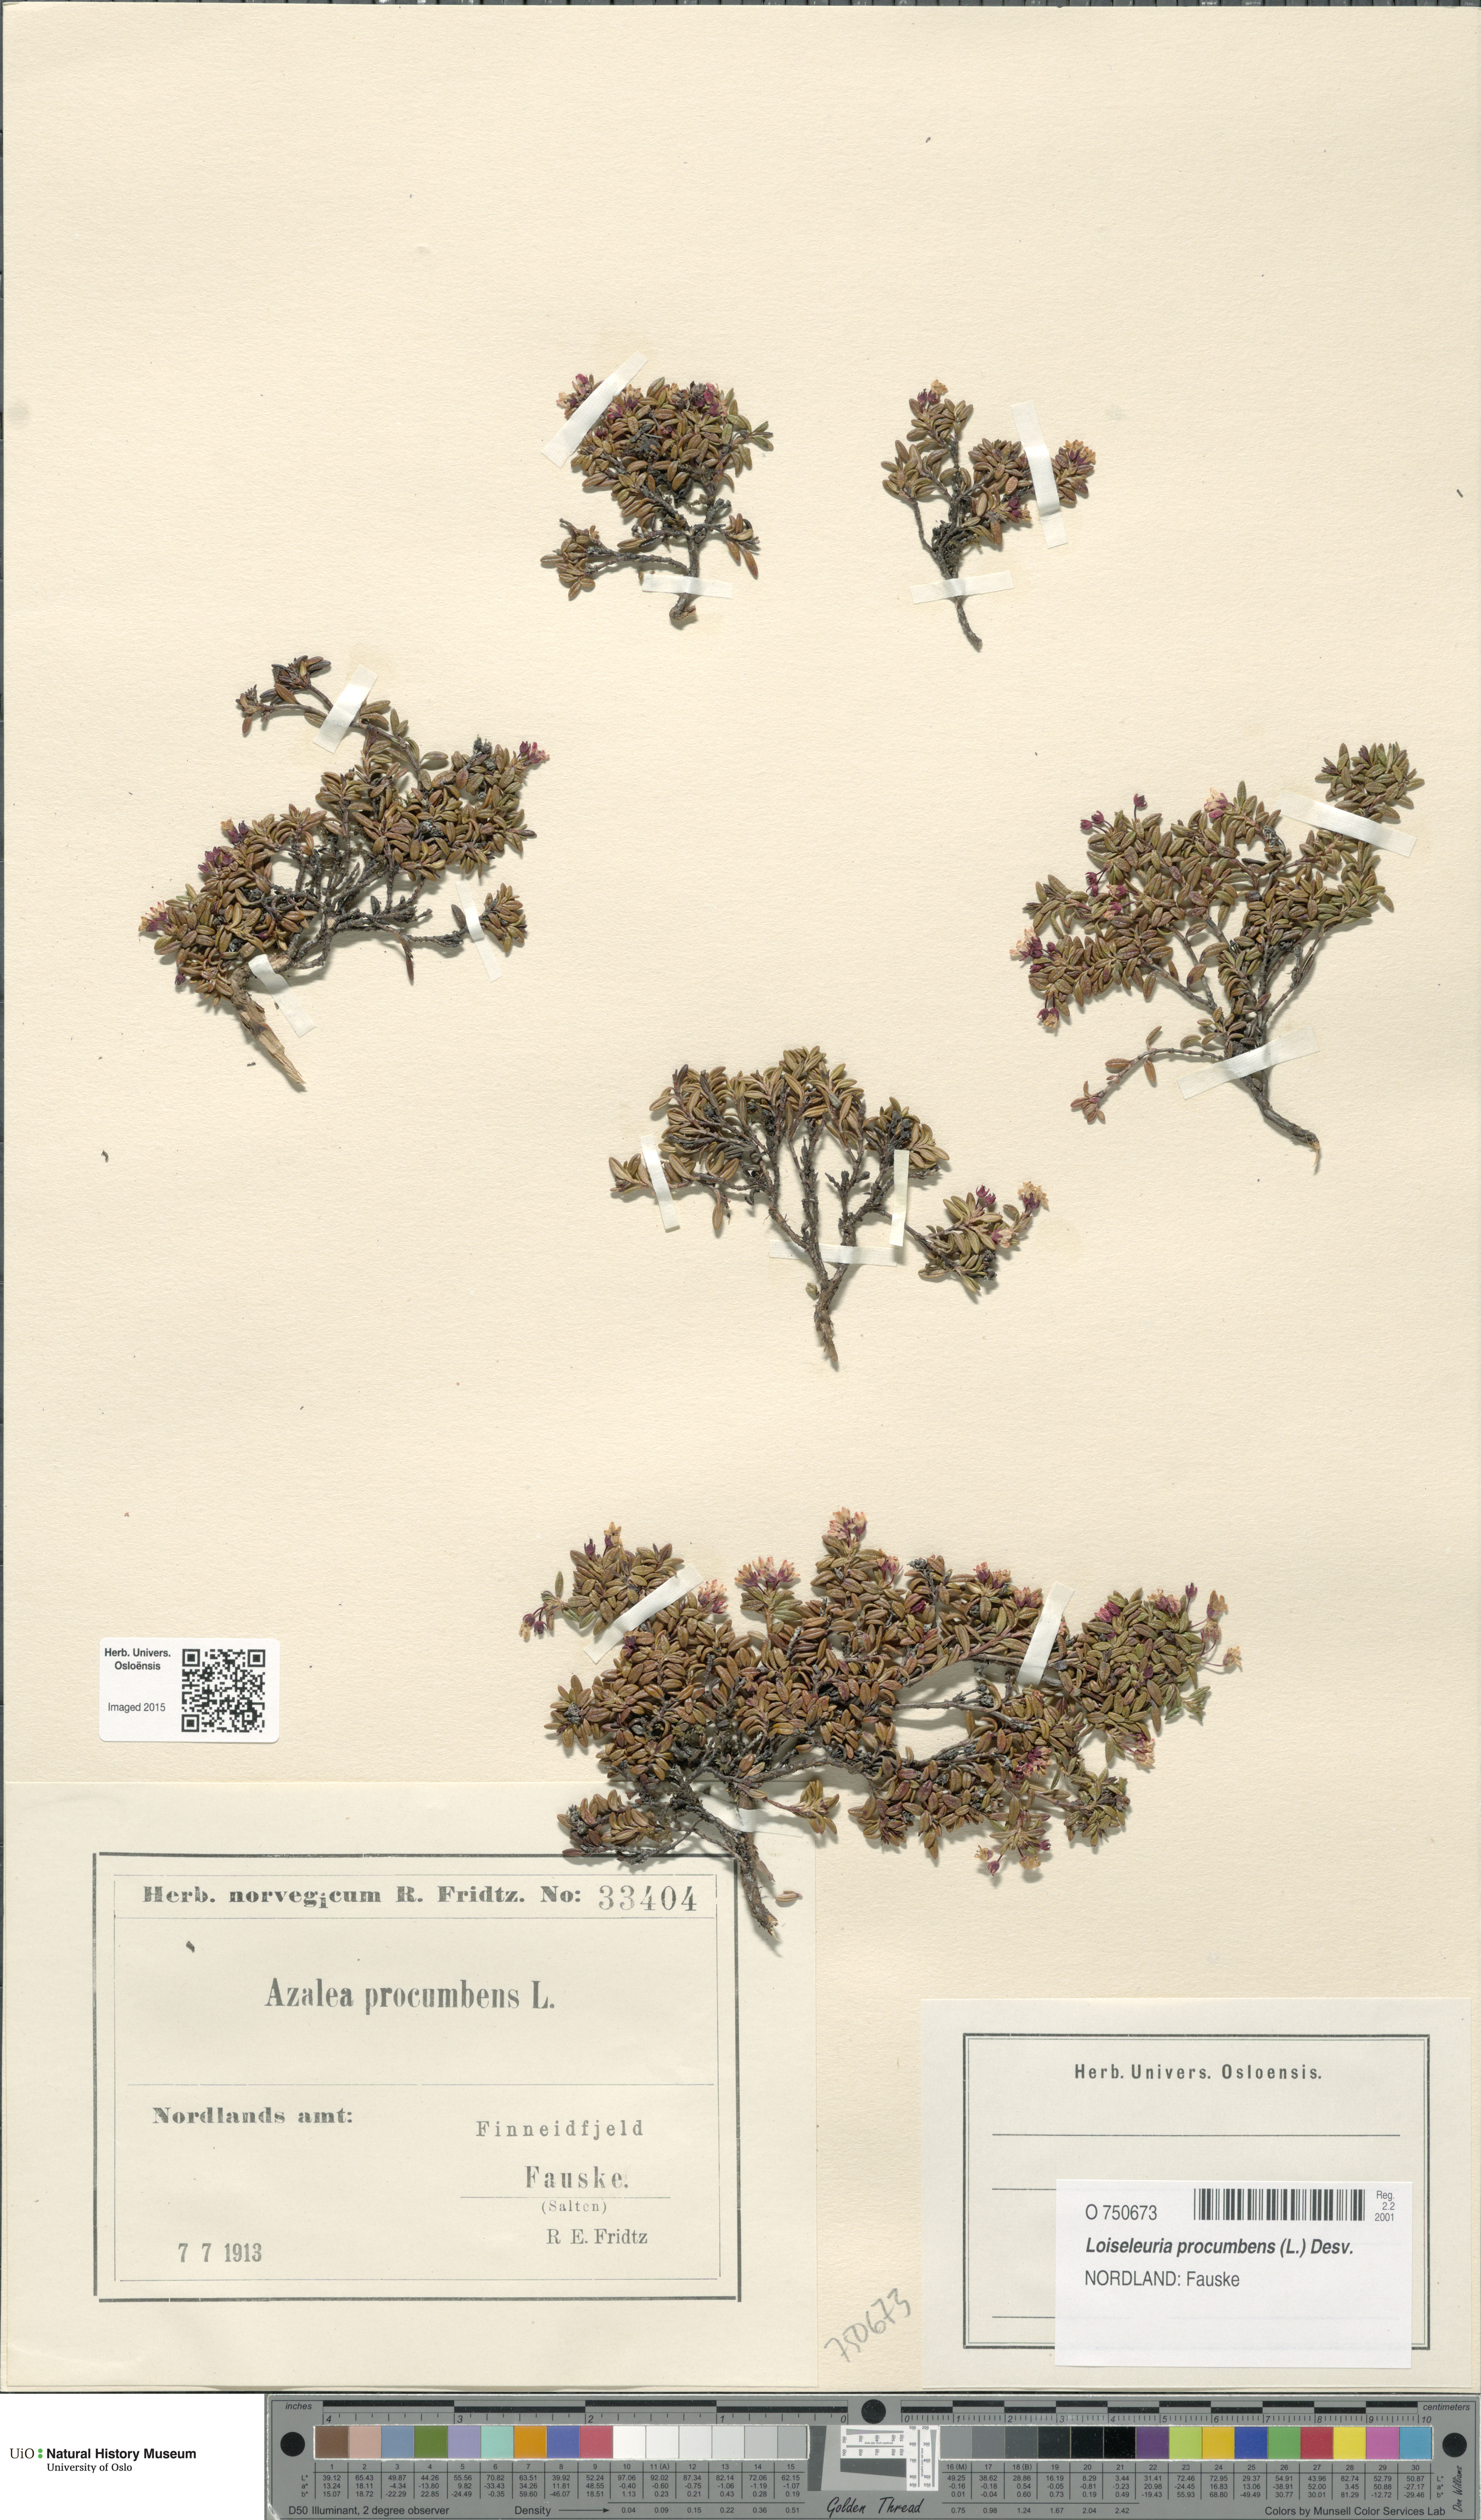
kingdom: Plantae
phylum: Tracheophyta
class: Magnoliopsida
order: Ericales
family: Ericaceae
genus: Kalmia
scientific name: Kalmia procumbens
